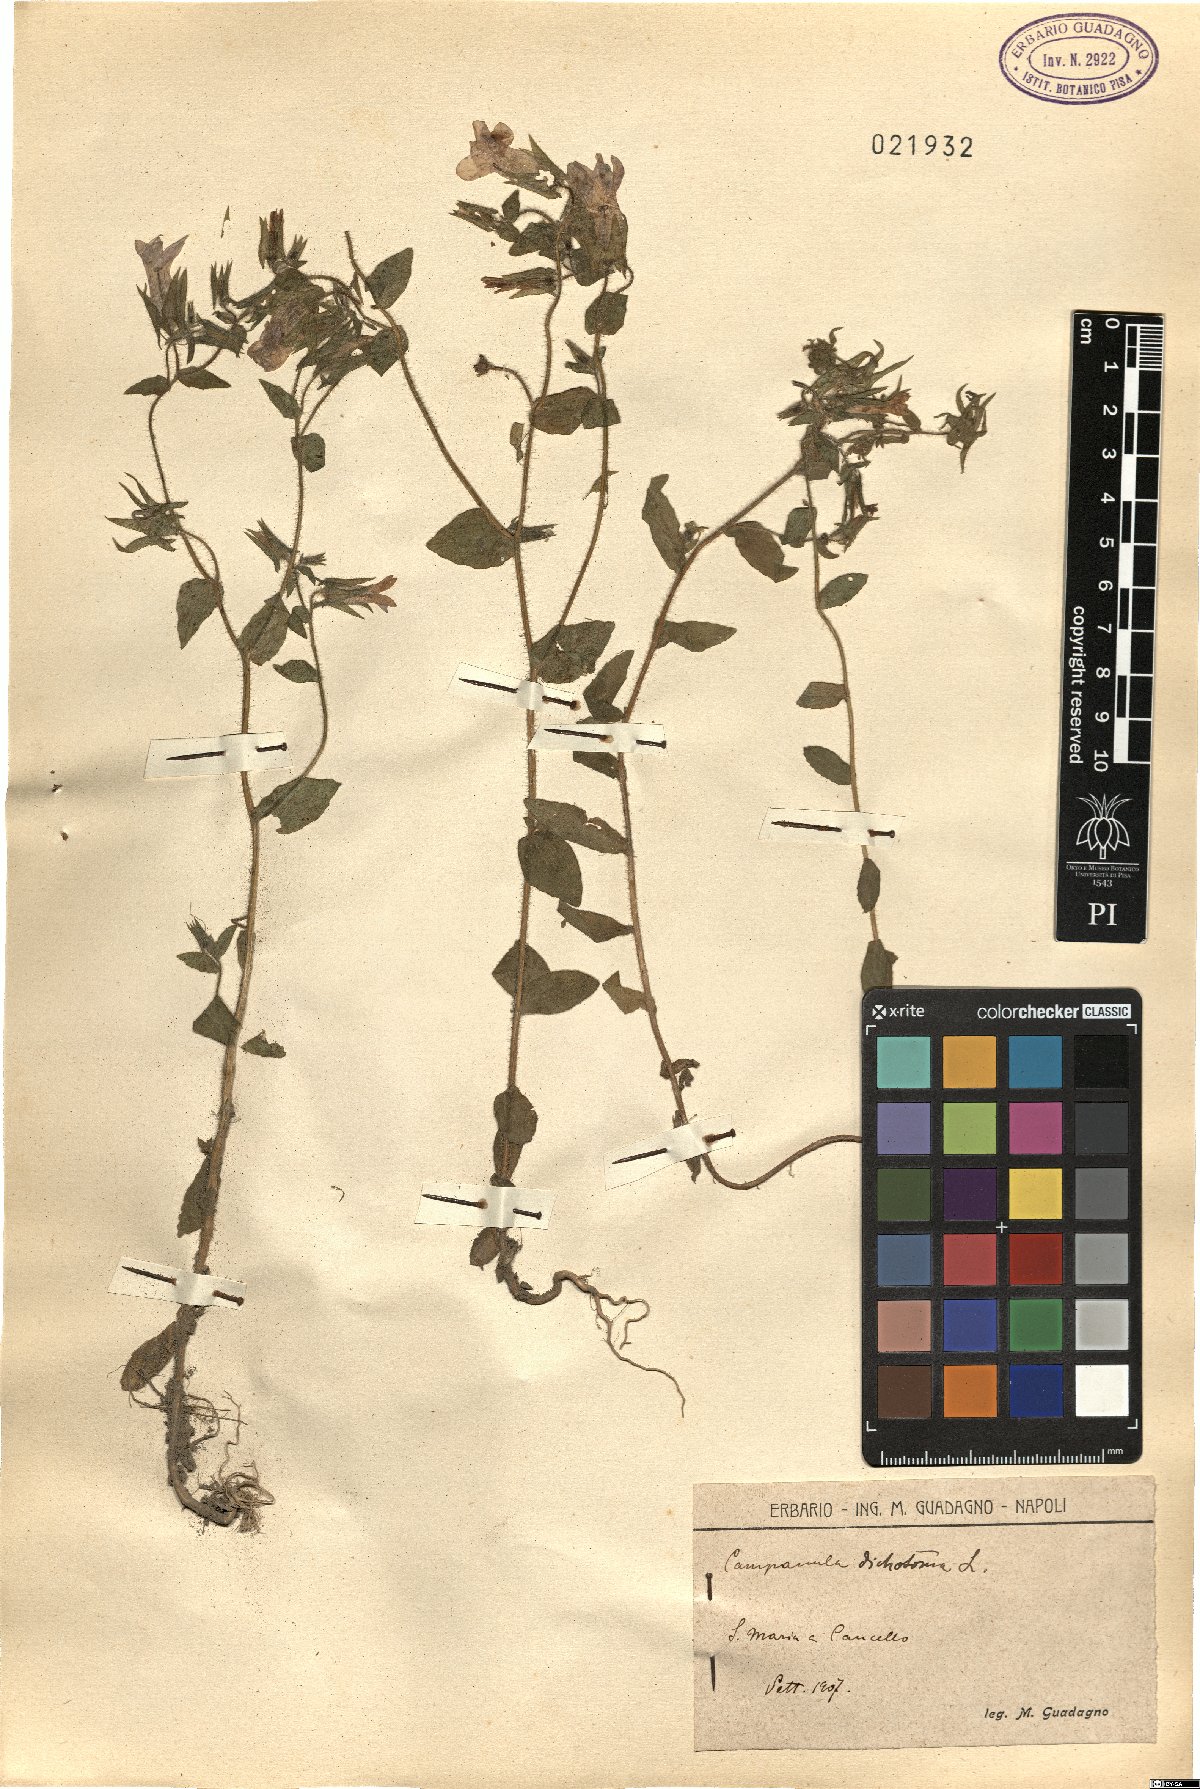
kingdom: Plantae
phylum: Tracheophyta
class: Magnoliopsida
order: Asterales
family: Campanulaceae
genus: Campanula
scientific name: Campanula dichotoma
